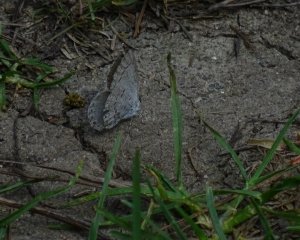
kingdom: Animalia
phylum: Arthropoda
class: Insecta
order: Lepidoptera
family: Lycaenidae
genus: Celastrina
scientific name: Celastrina lucia
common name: Northern Spring Azure
